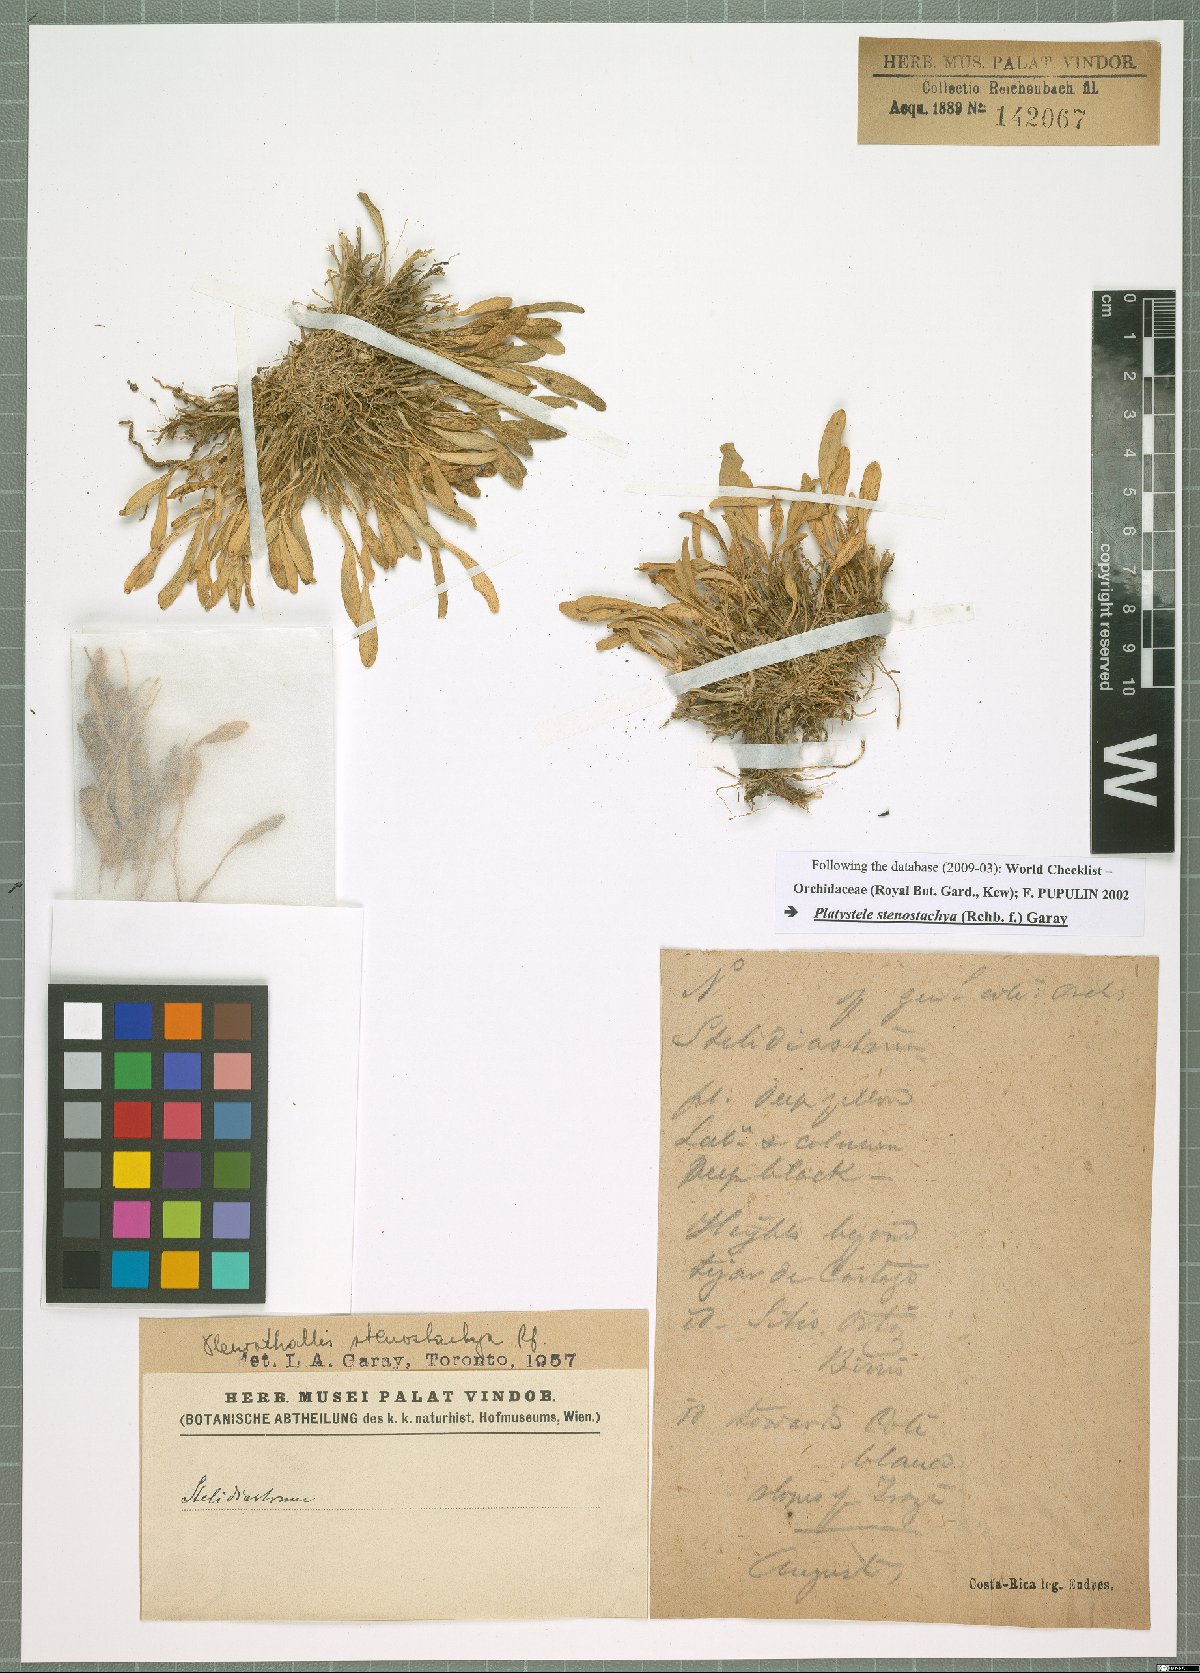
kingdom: Plantae
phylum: Tracheophyta
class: Liliopsida
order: Asparagales
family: Orchidaceae
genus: Platystele
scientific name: Platystele stenostachya
